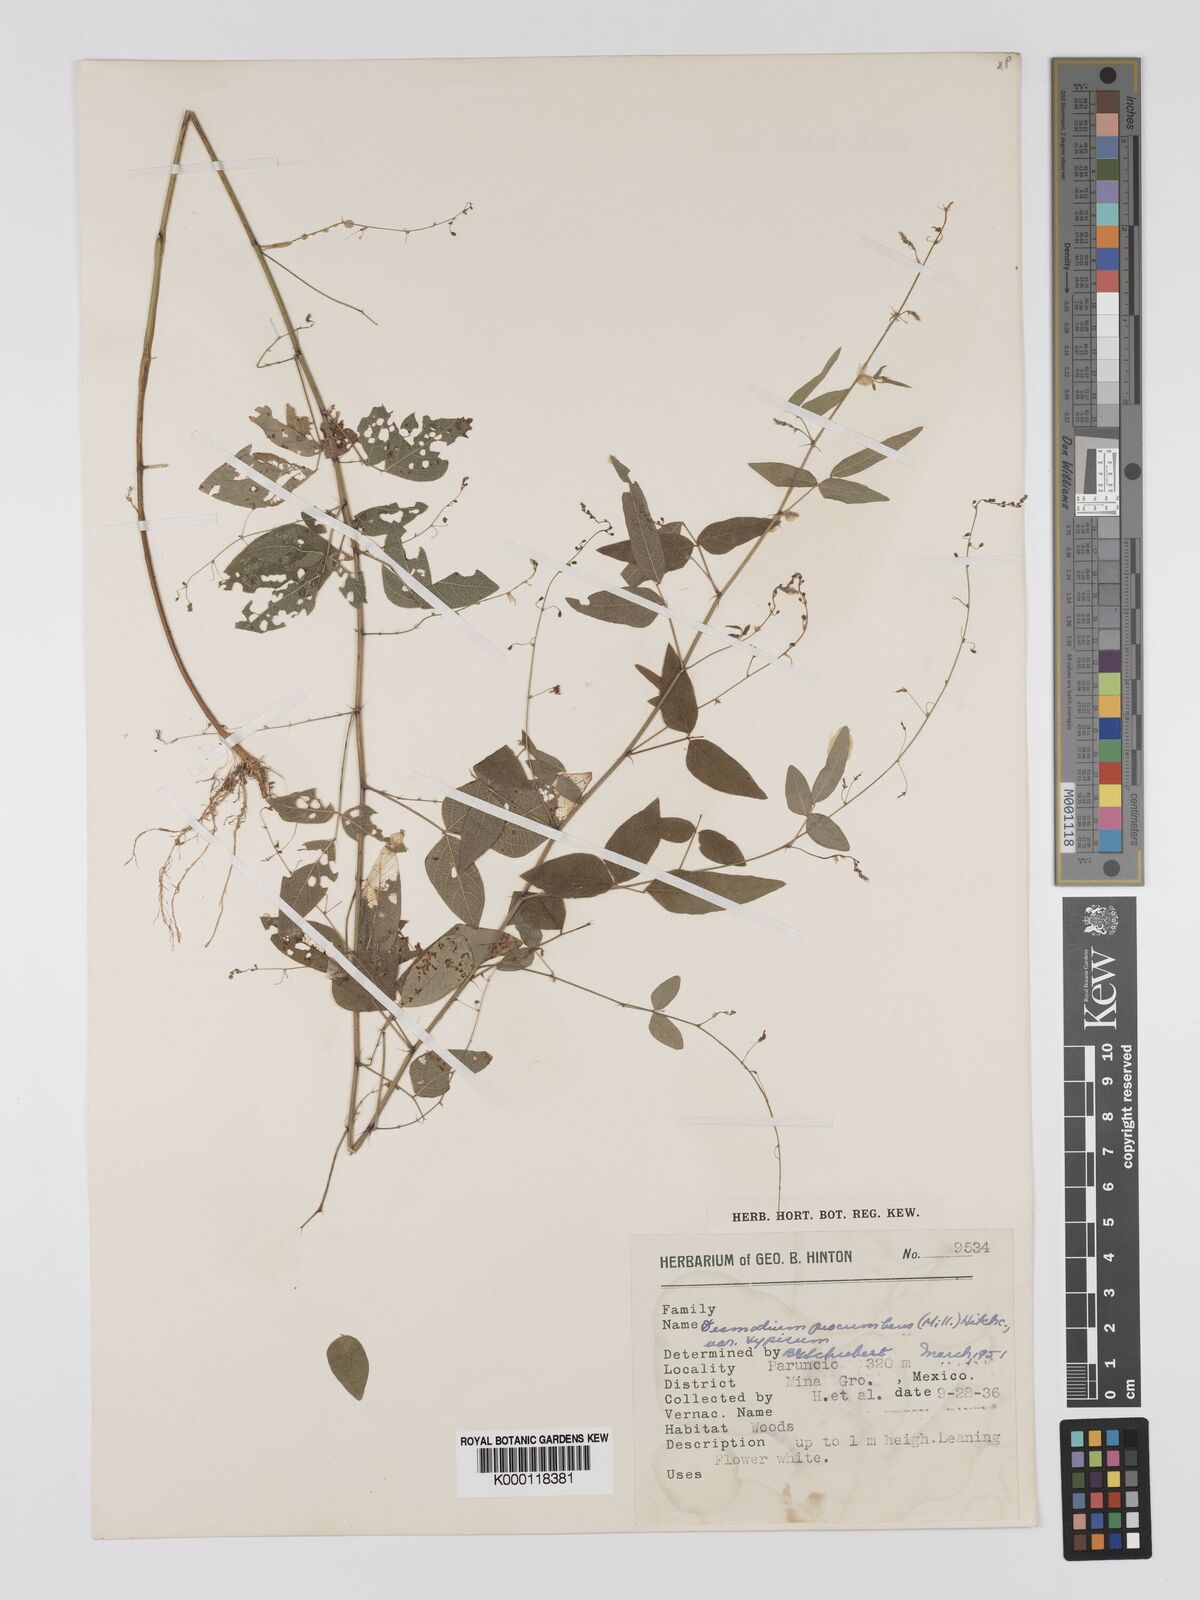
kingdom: Plantae
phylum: Tracheophyta
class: Magnoliopsida
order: Fabales
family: Fabaceae
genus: Desmodium
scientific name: Desmodium procumbens
